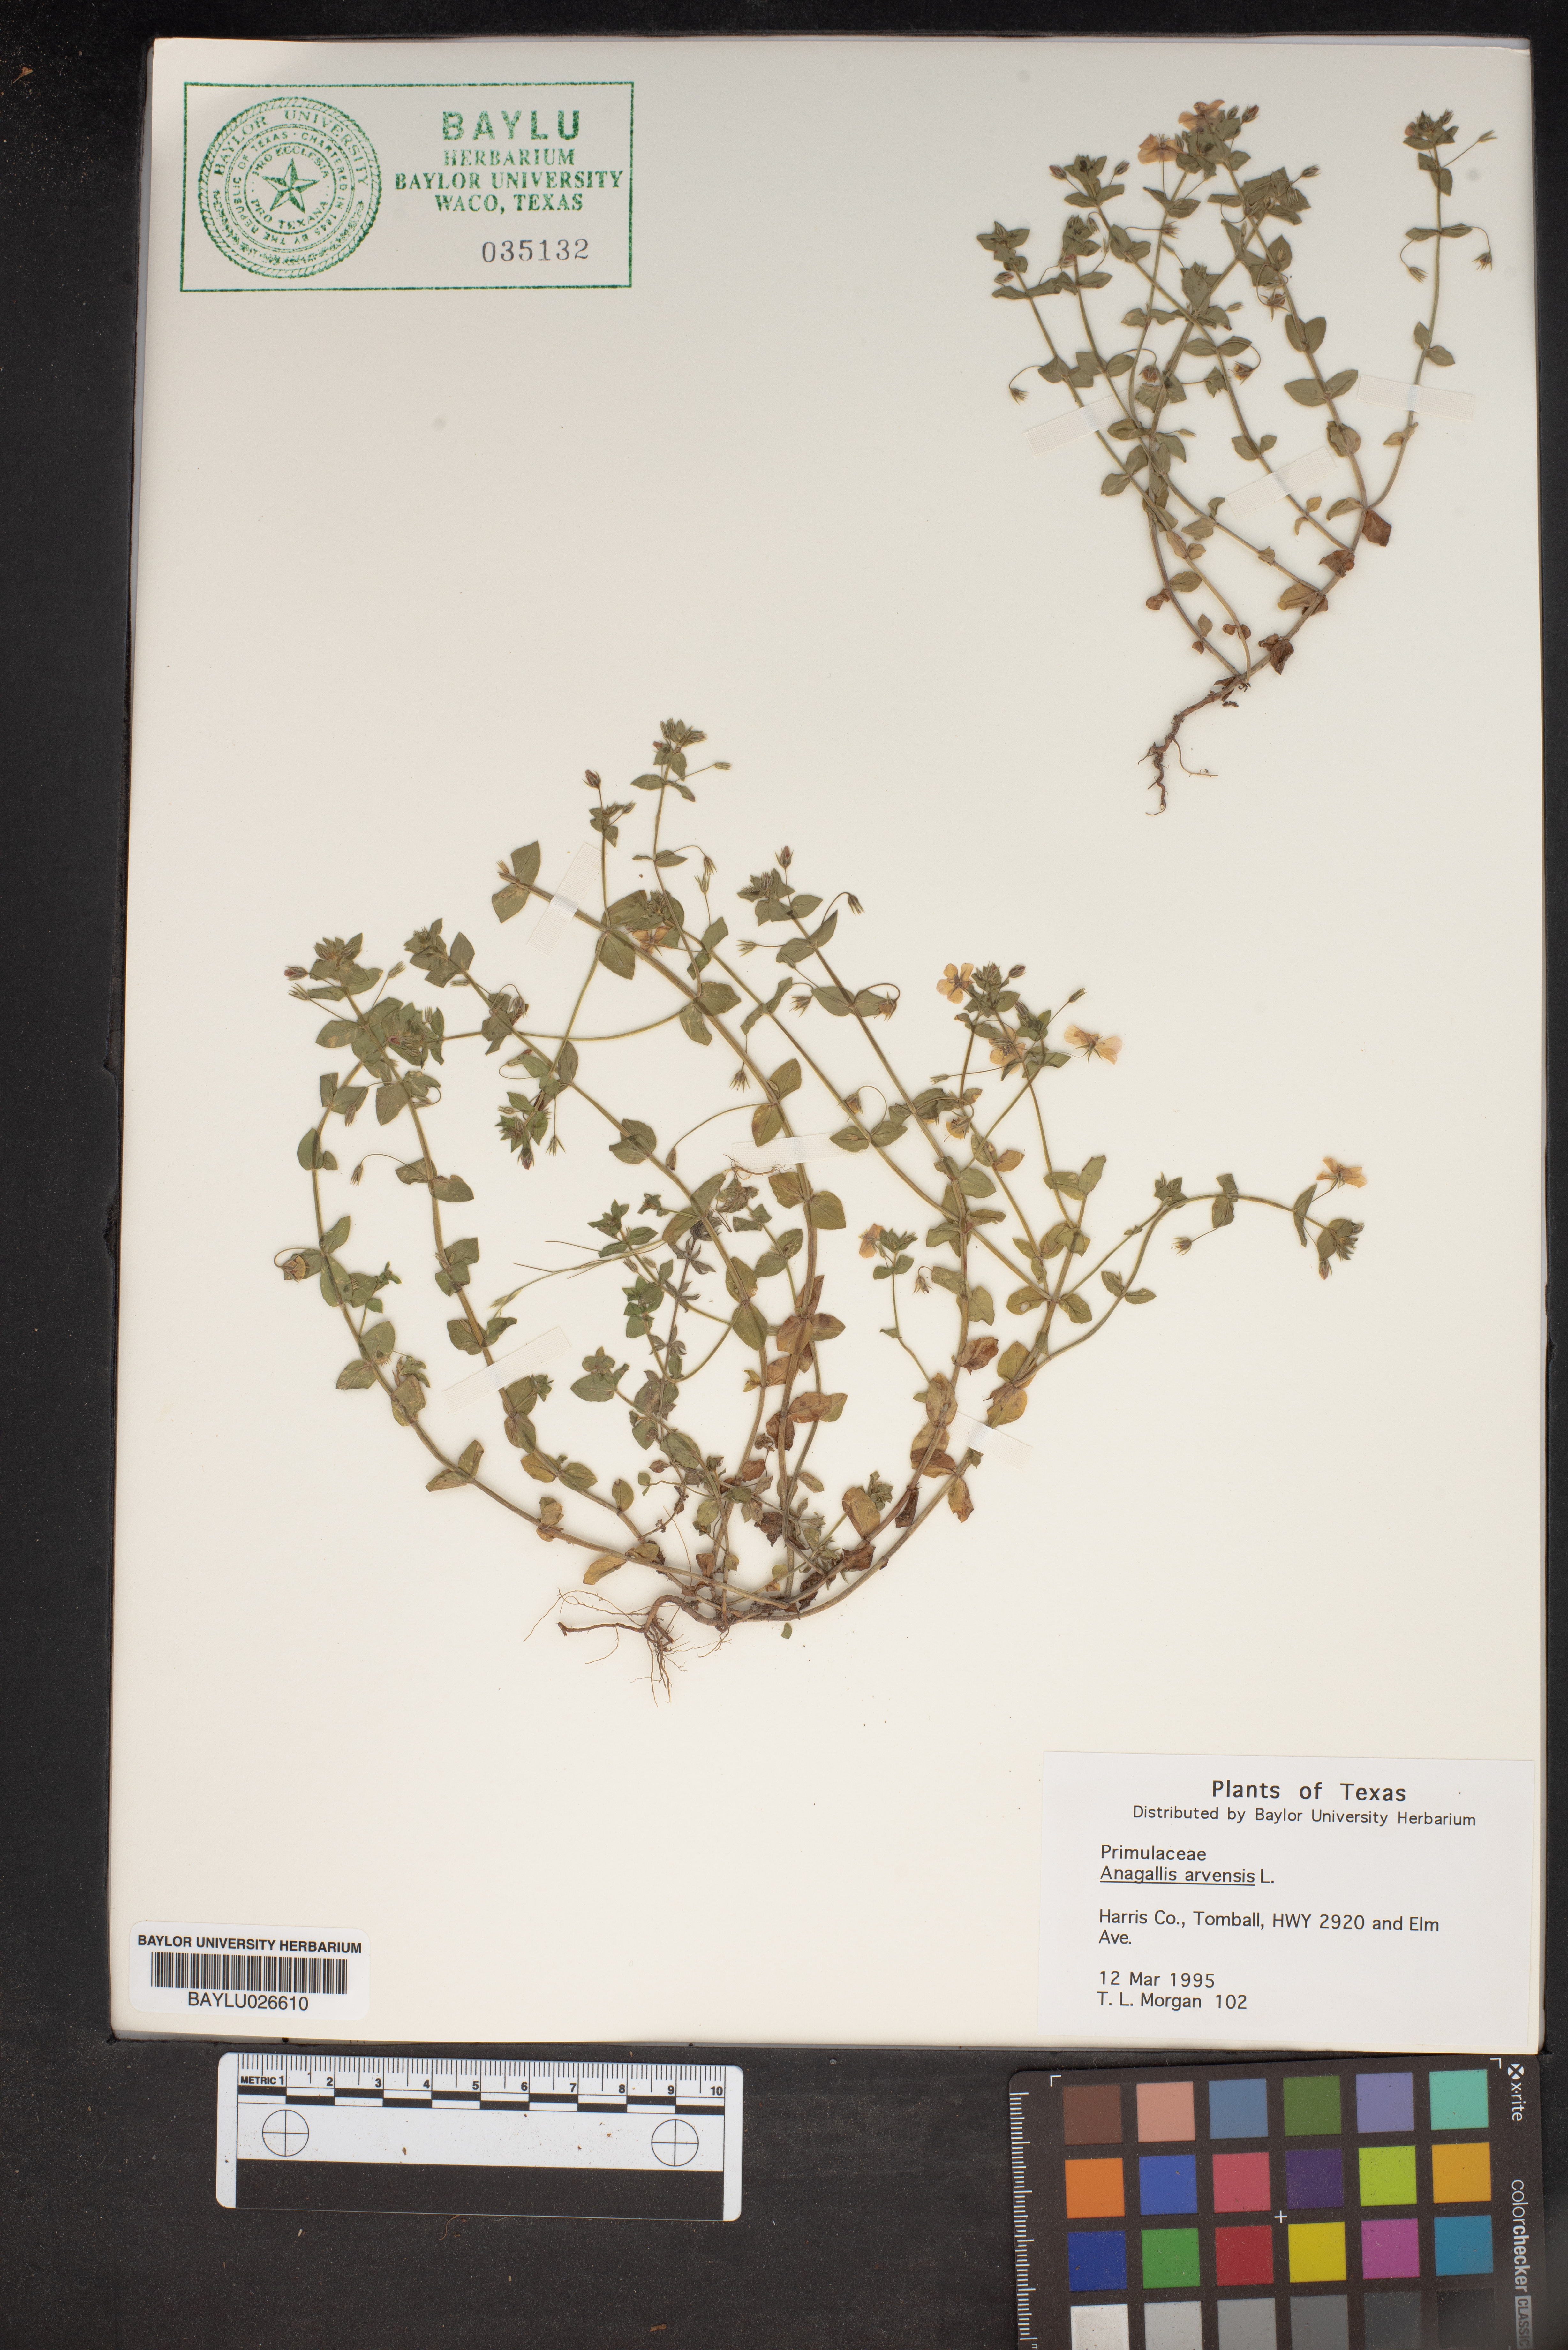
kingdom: Plantae
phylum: Tracheophyta
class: Magnoliopsida
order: Ericales
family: Primulaceae
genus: Lysimachia
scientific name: Lysimachia arvensis
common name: Scarlet pimpernel
